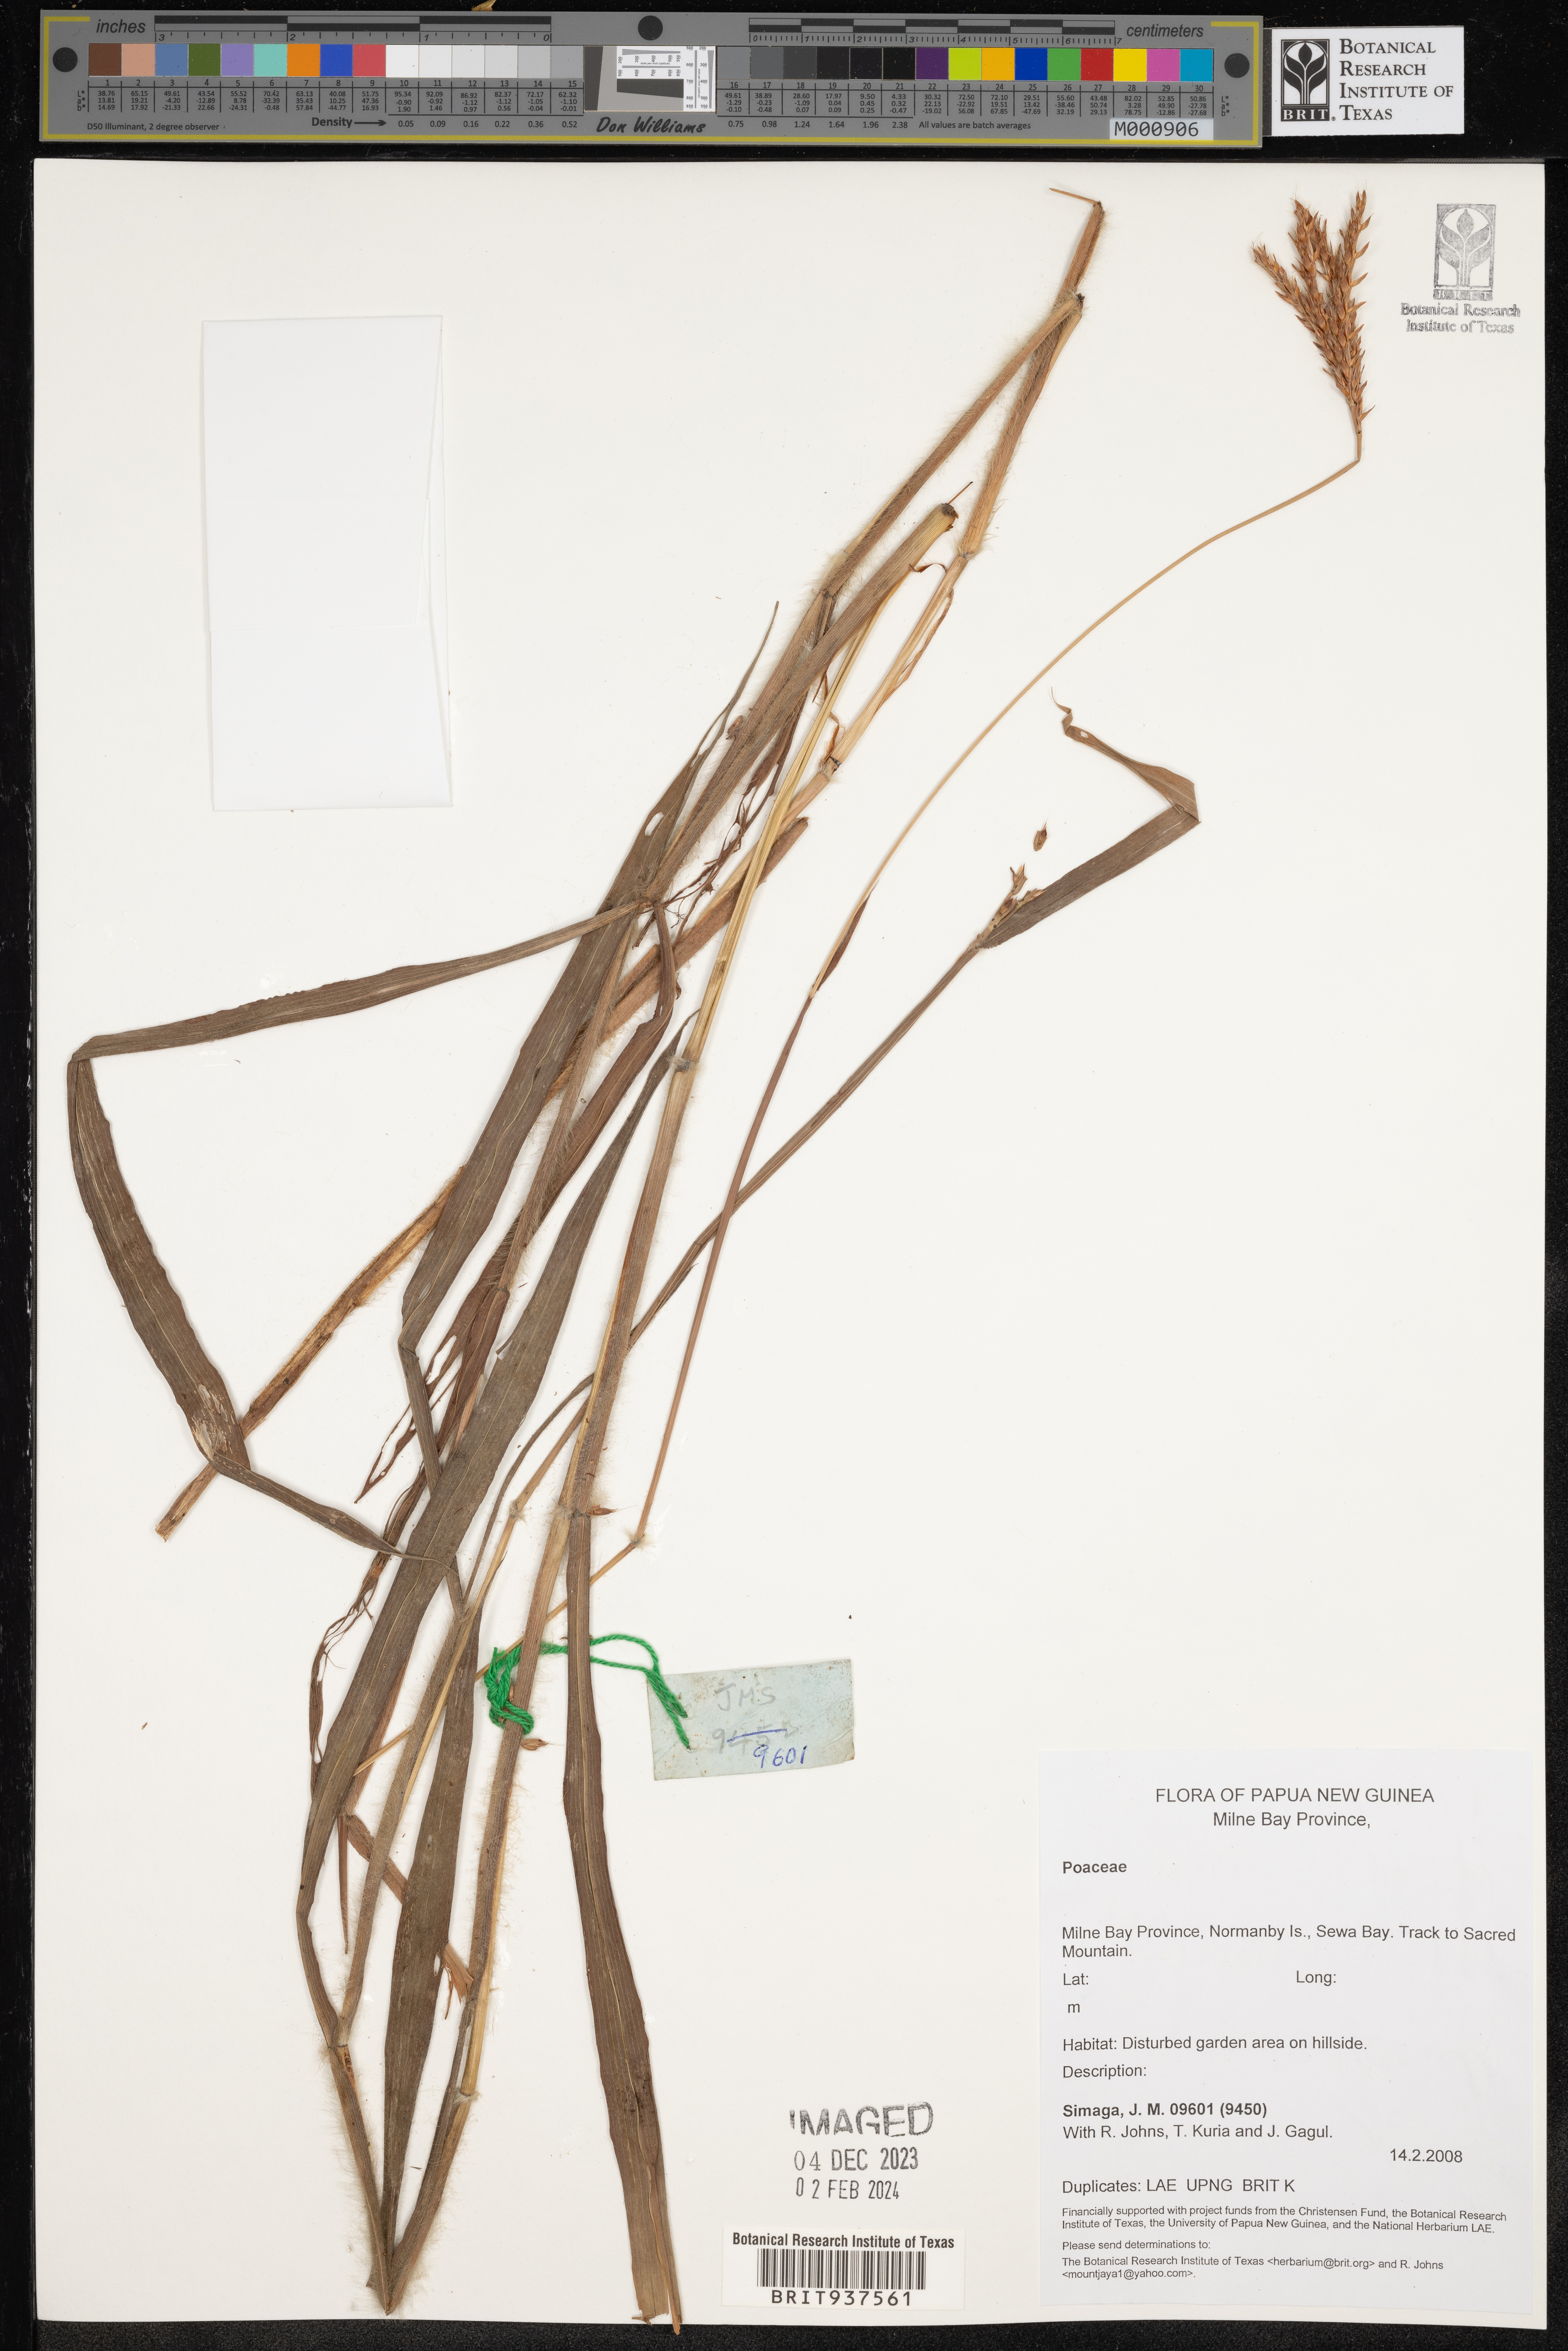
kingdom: Plantae
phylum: Tracheophyta
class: Liliopsida
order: Poales
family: Poaceae
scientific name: Poaceae
